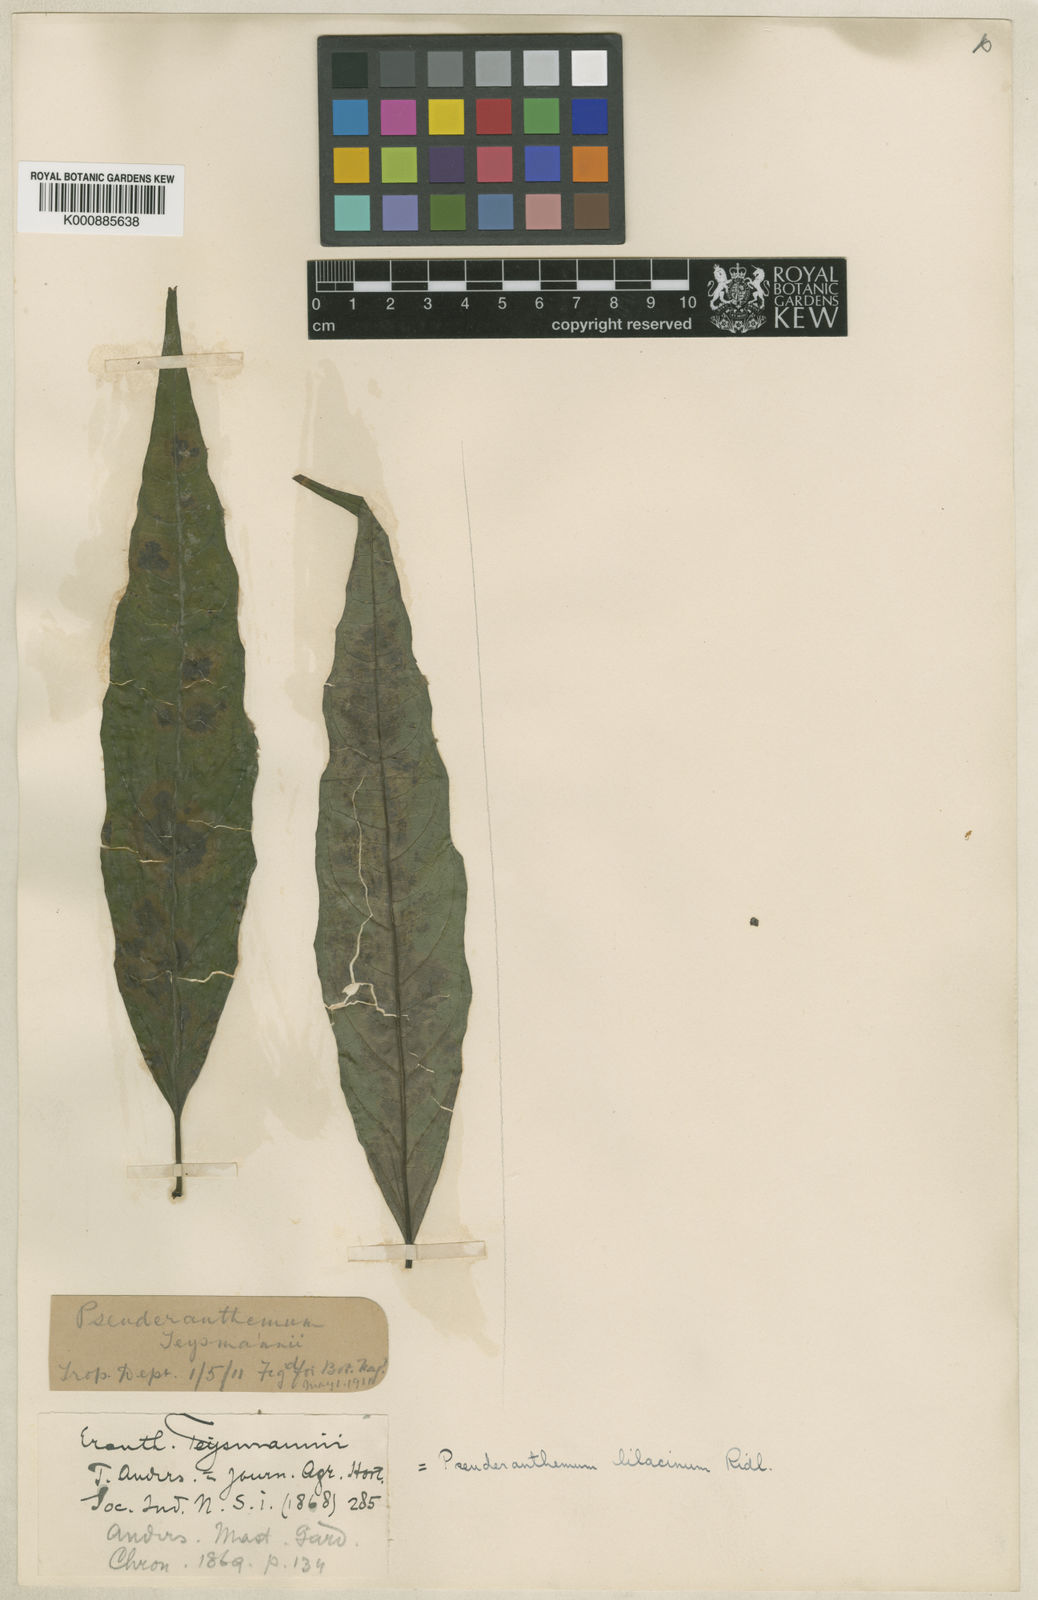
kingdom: Plantae
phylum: Tracheophyta
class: Magnoliopsida
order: Lamiales
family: Acanthaceae
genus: Pseuderanthemum
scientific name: Pseuderanthemum
